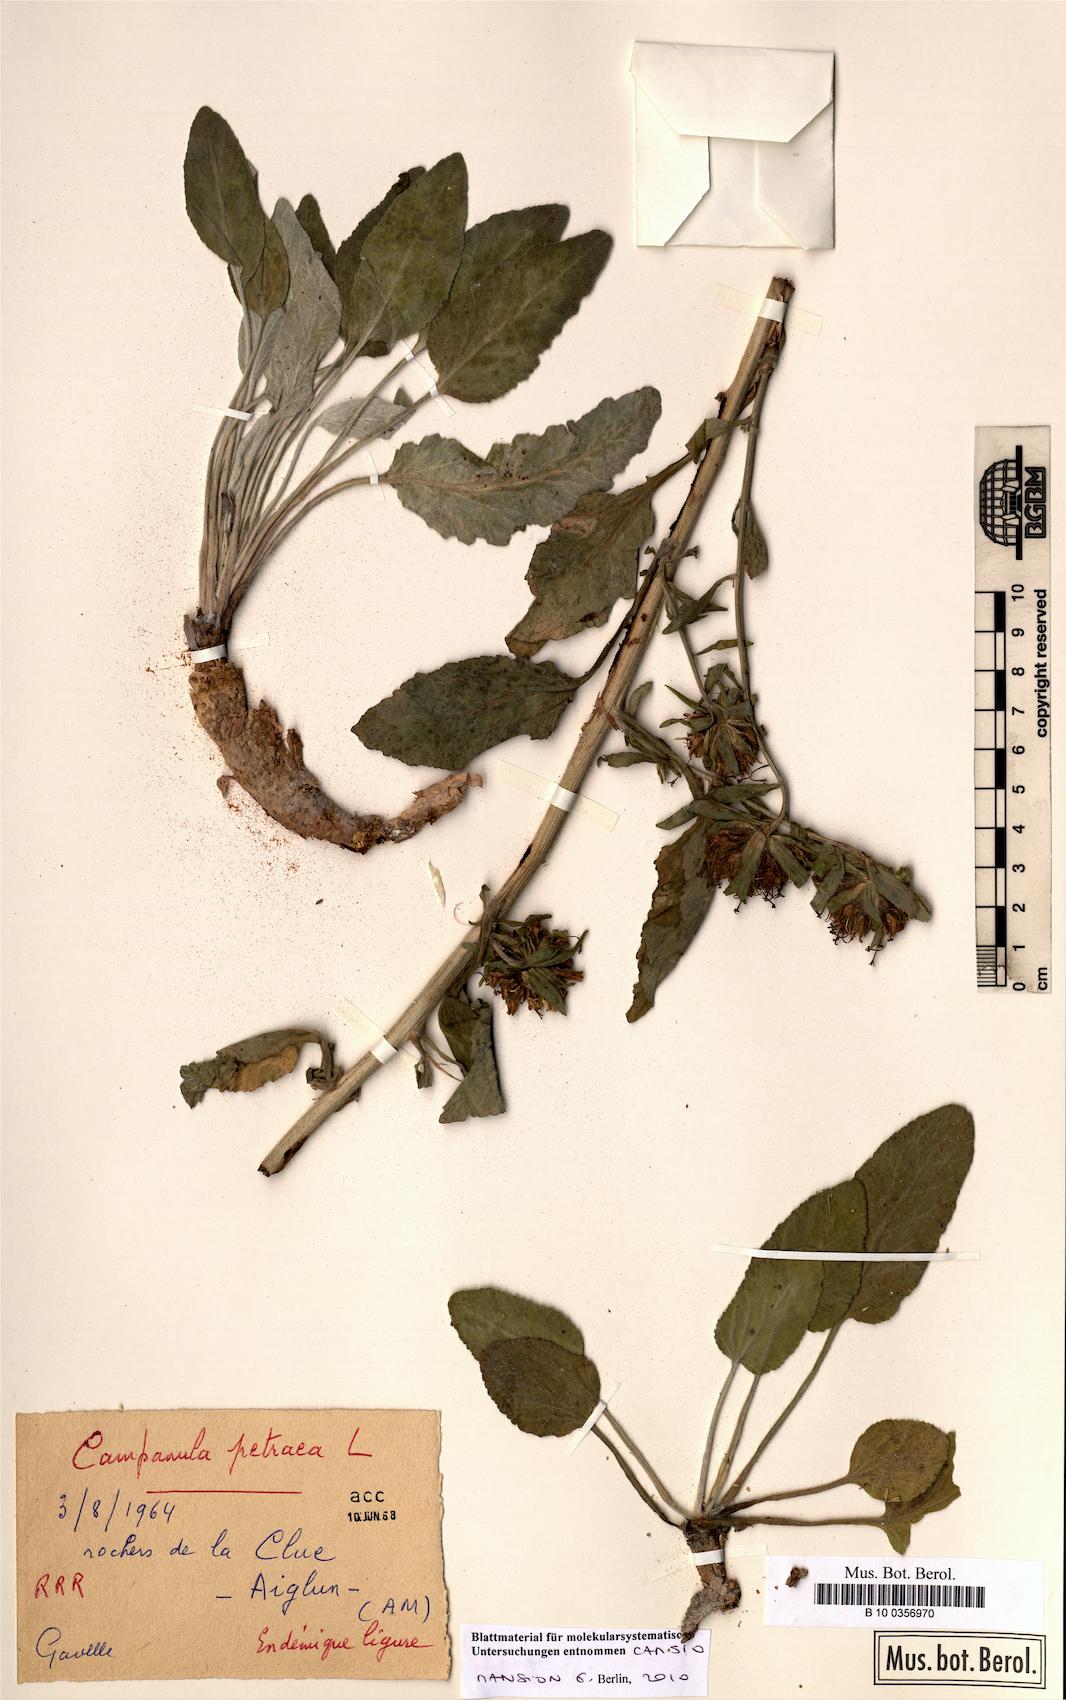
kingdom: Plantae
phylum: Tracheophyta
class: Magnoliopsida
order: Asterales
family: Campanulaceae
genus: Campanula
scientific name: Campanula petraea
